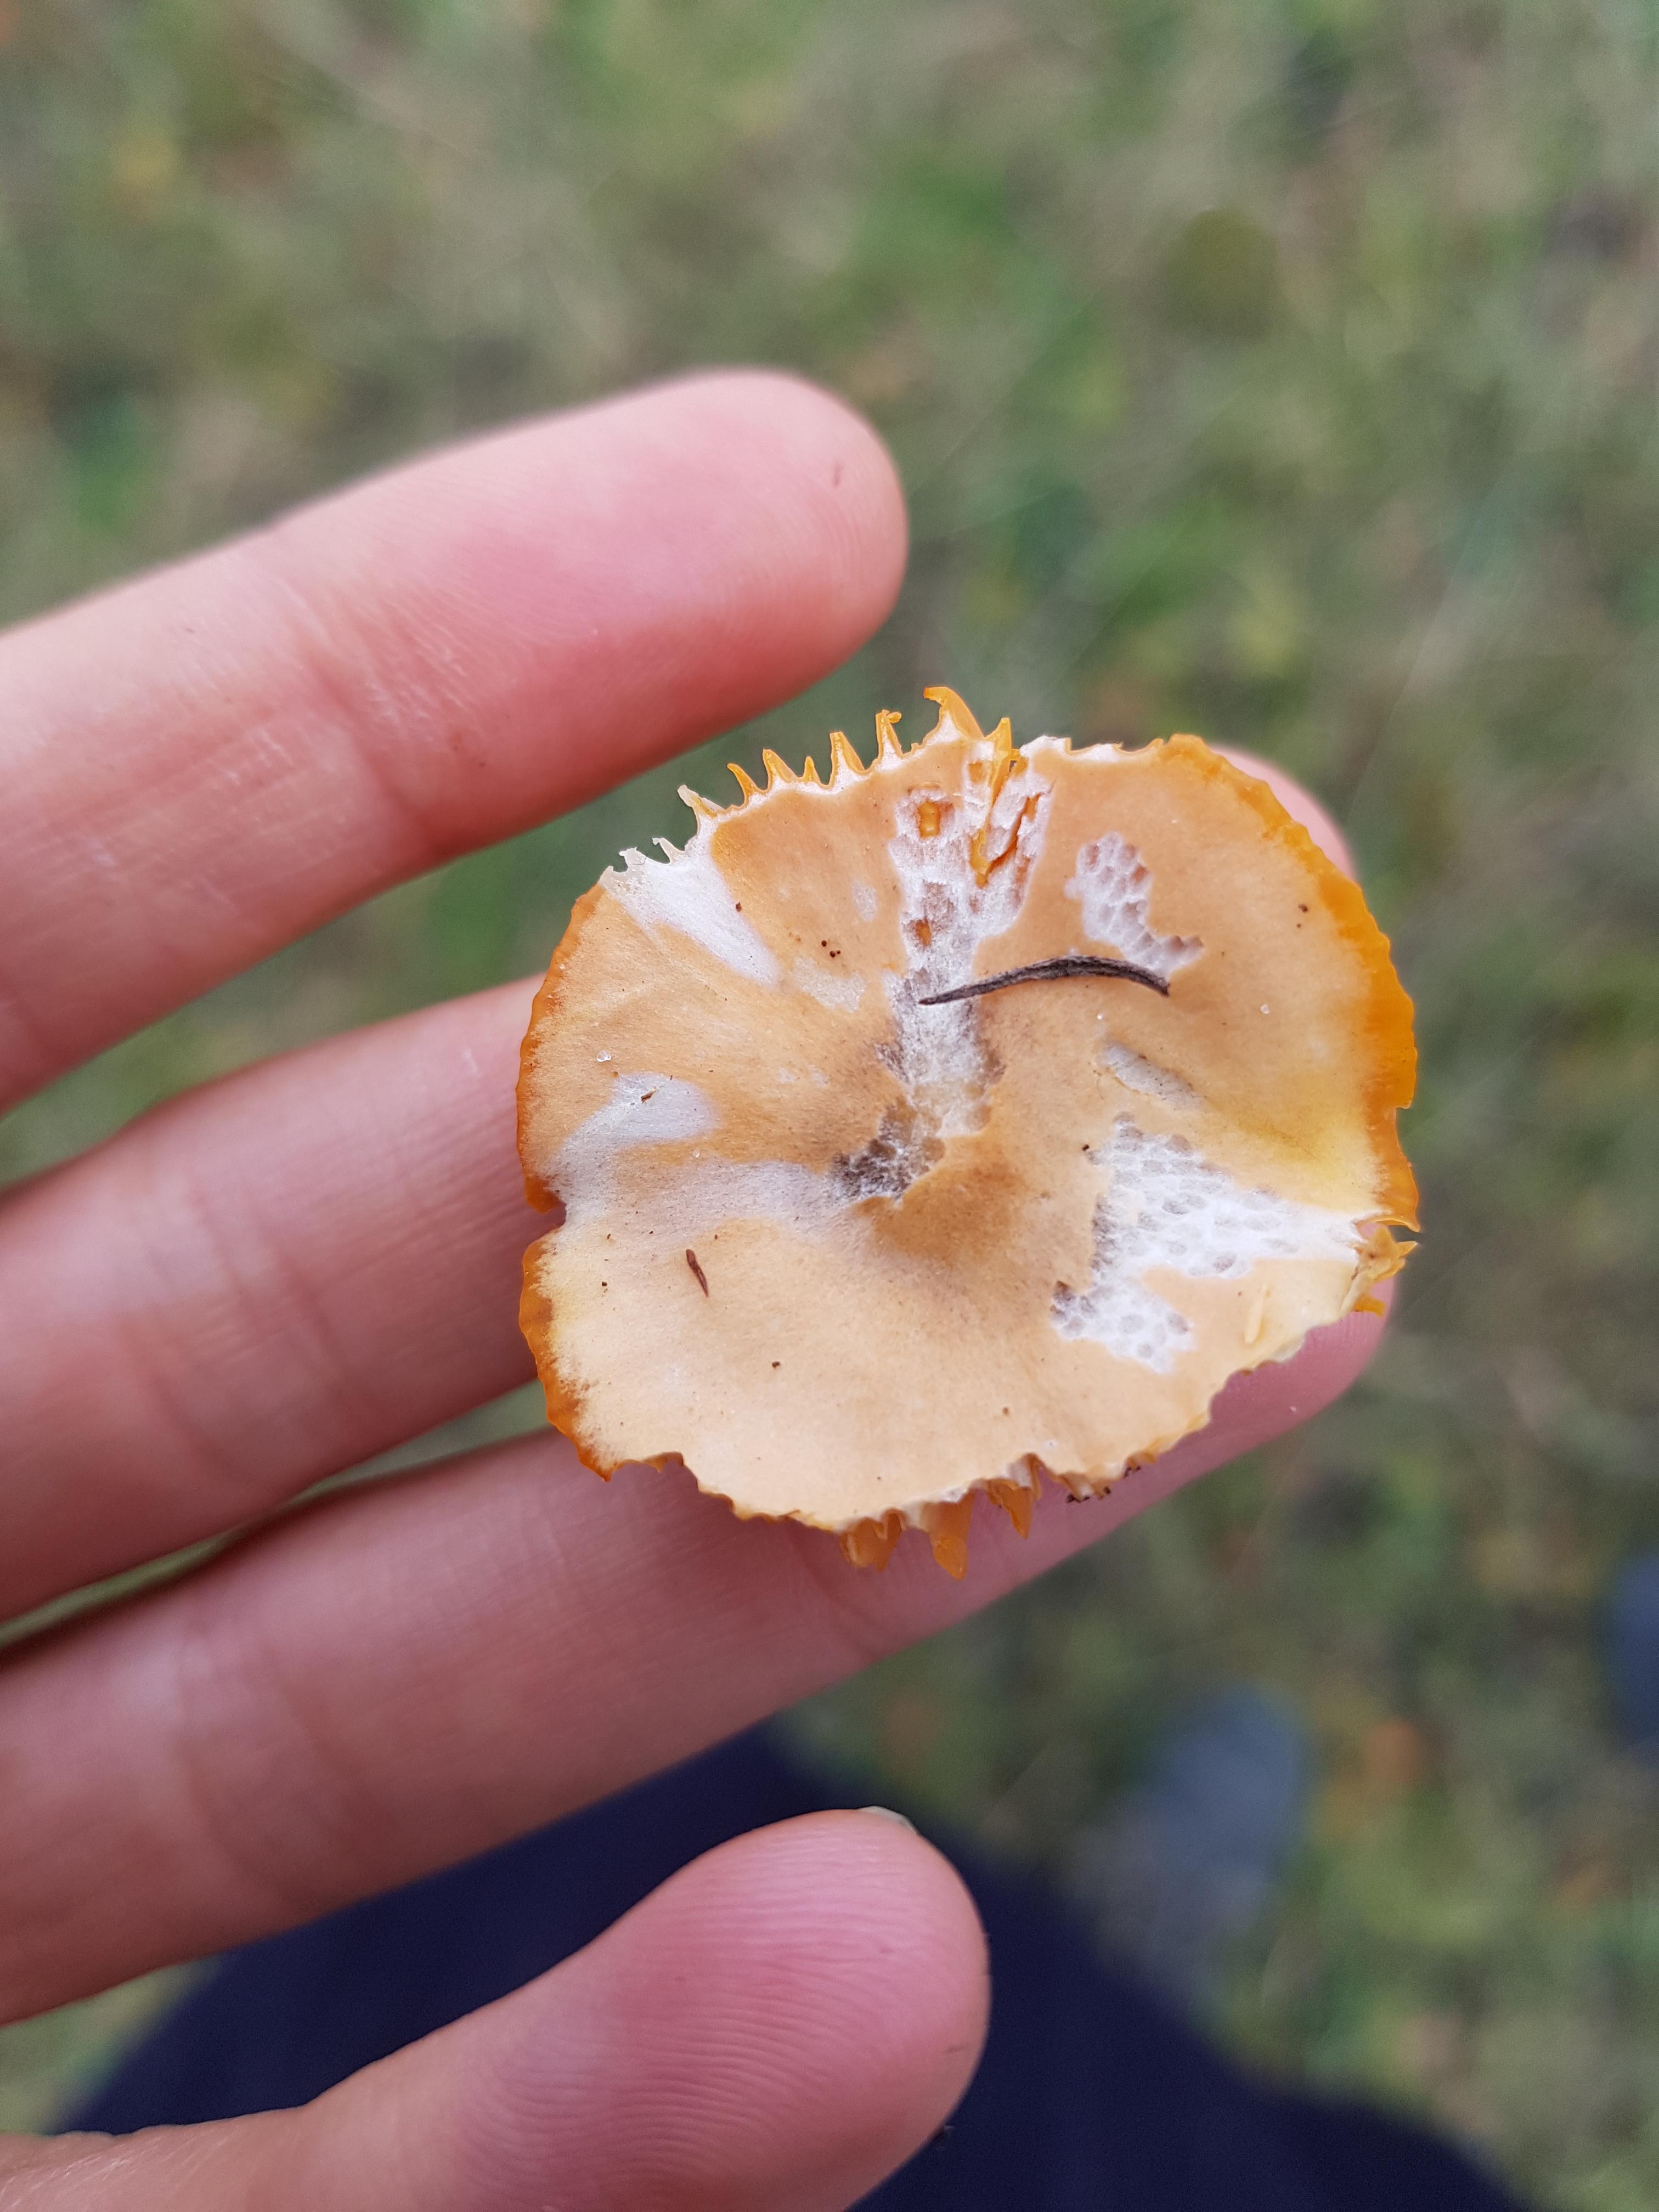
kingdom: Fungi
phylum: Basidiomycota
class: Agaricomycetes
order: Agaricales
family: Hygrophoraceae
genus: Gliophorus
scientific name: Gliophorus psittacinus
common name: papegøje-vokshat
